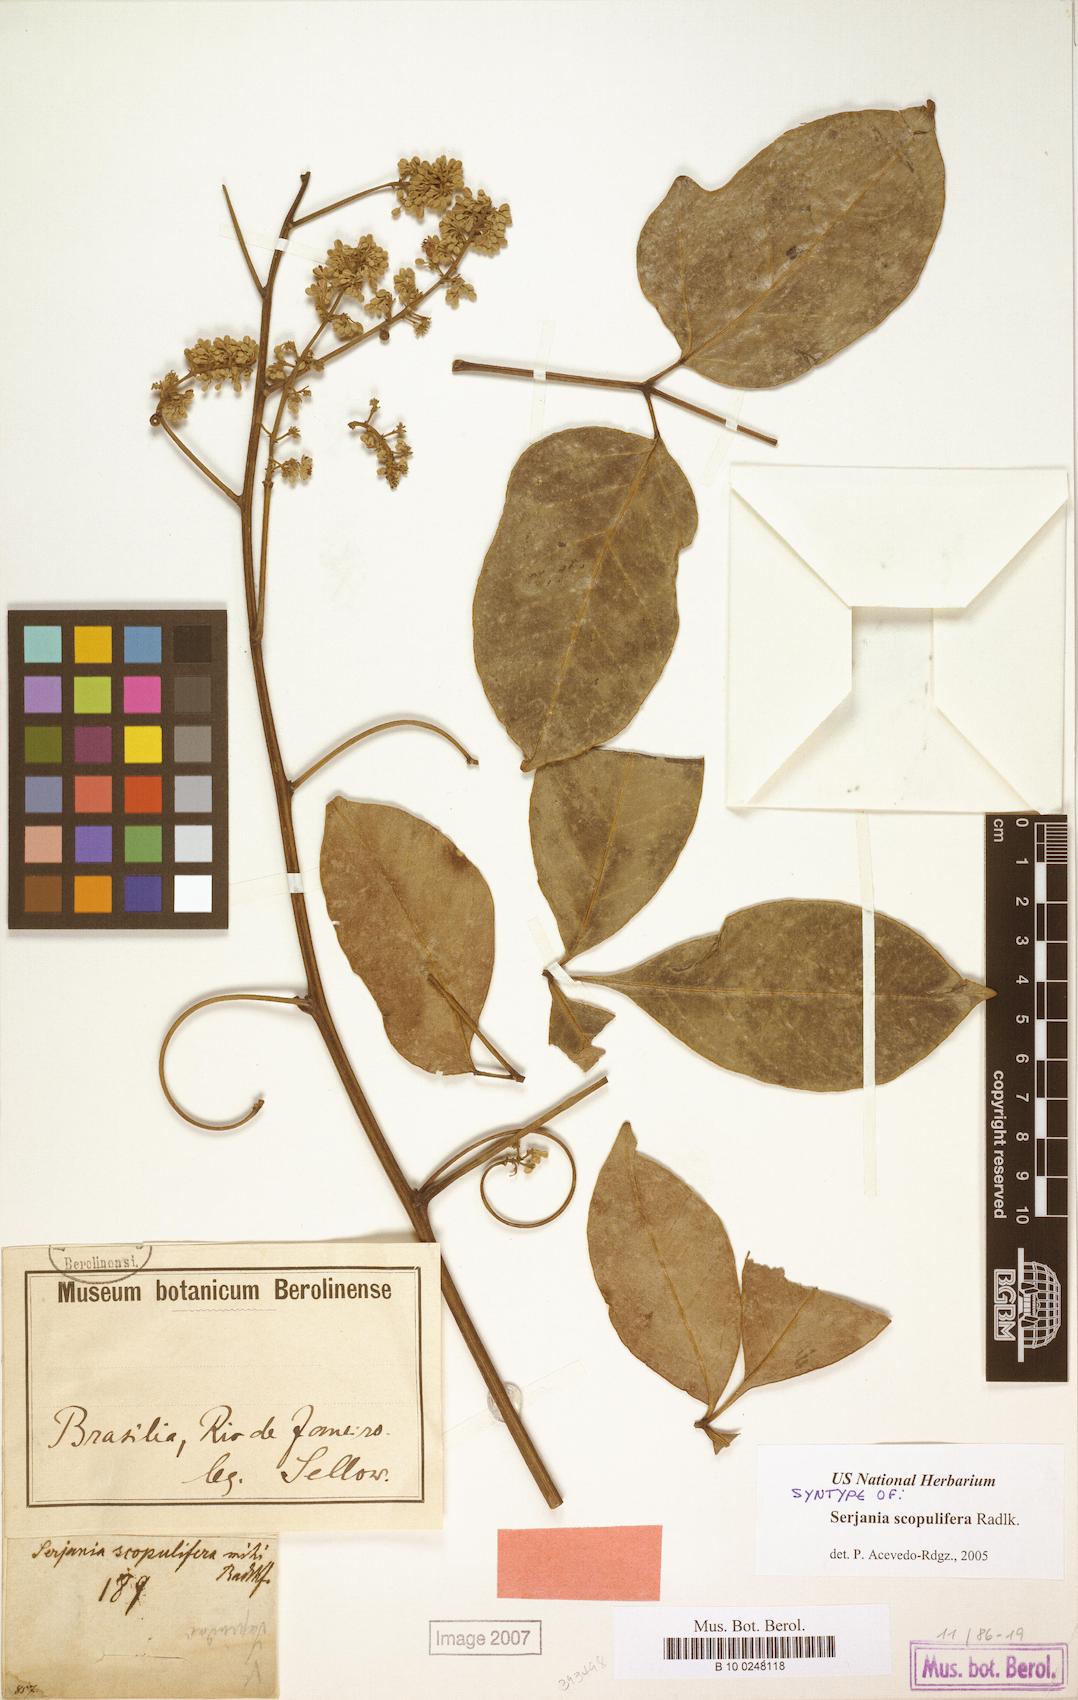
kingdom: Plantae
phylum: Tracheophyta
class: Magnoliopsida
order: Sapindales
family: Sapindaceae
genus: Serjania
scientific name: Serjania scopulifera
